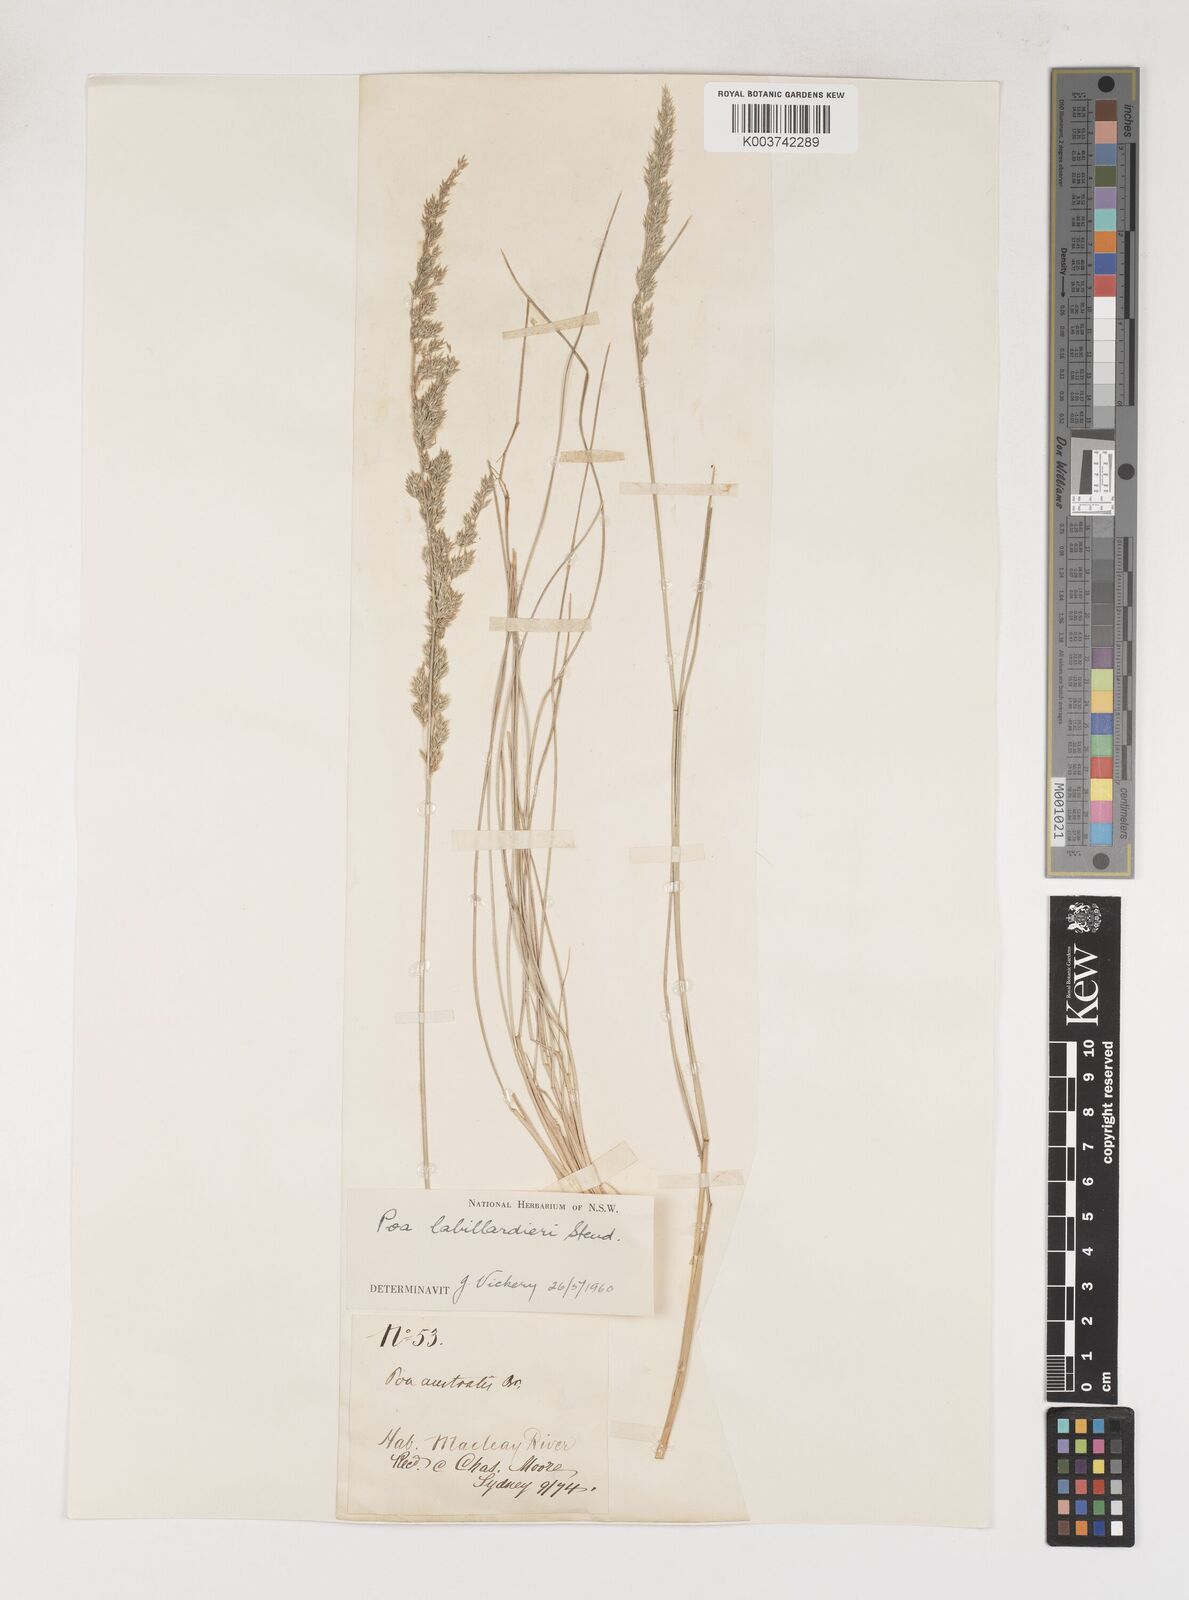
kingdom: Plantae
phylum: Tracheophyta
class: Liliopsida
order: Poales
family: Poaceae
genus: Poa
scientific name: Poa labillardierei
